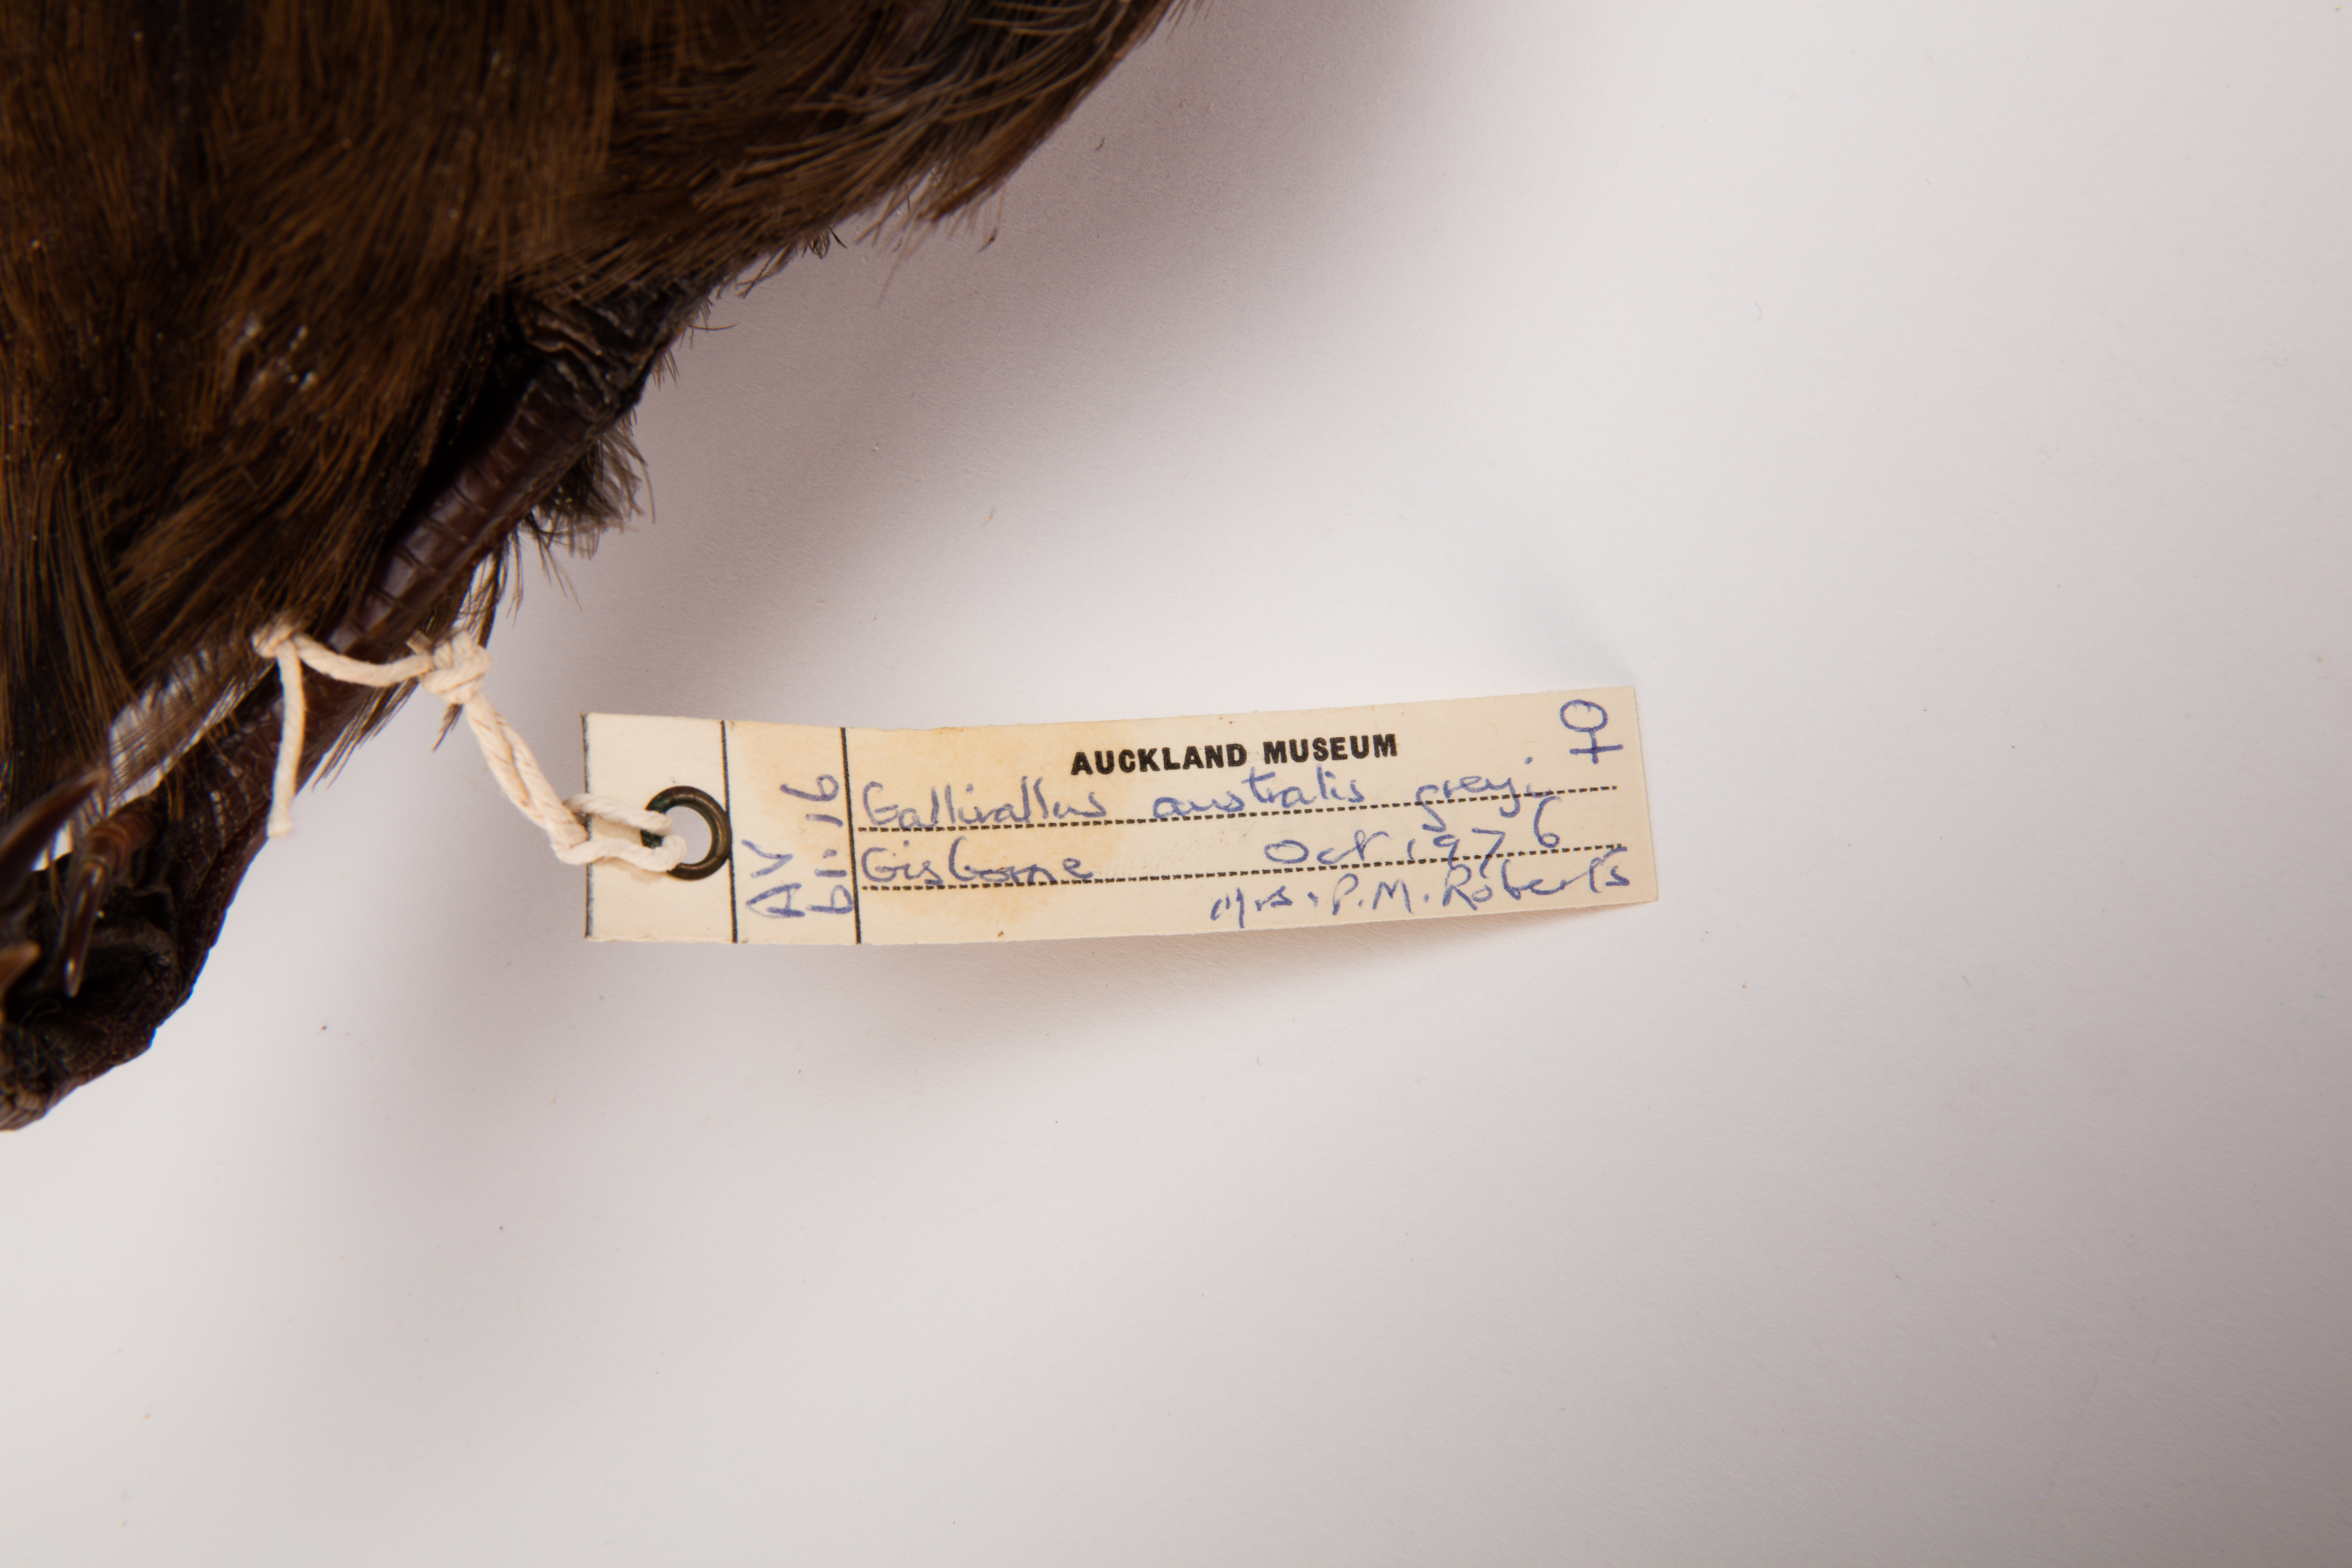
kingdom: Animalia
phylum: Chordata
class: Aves
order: Gruiformes
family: Rallidae
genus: Gallirallus
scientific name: Gallirallus australis
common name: Weka
